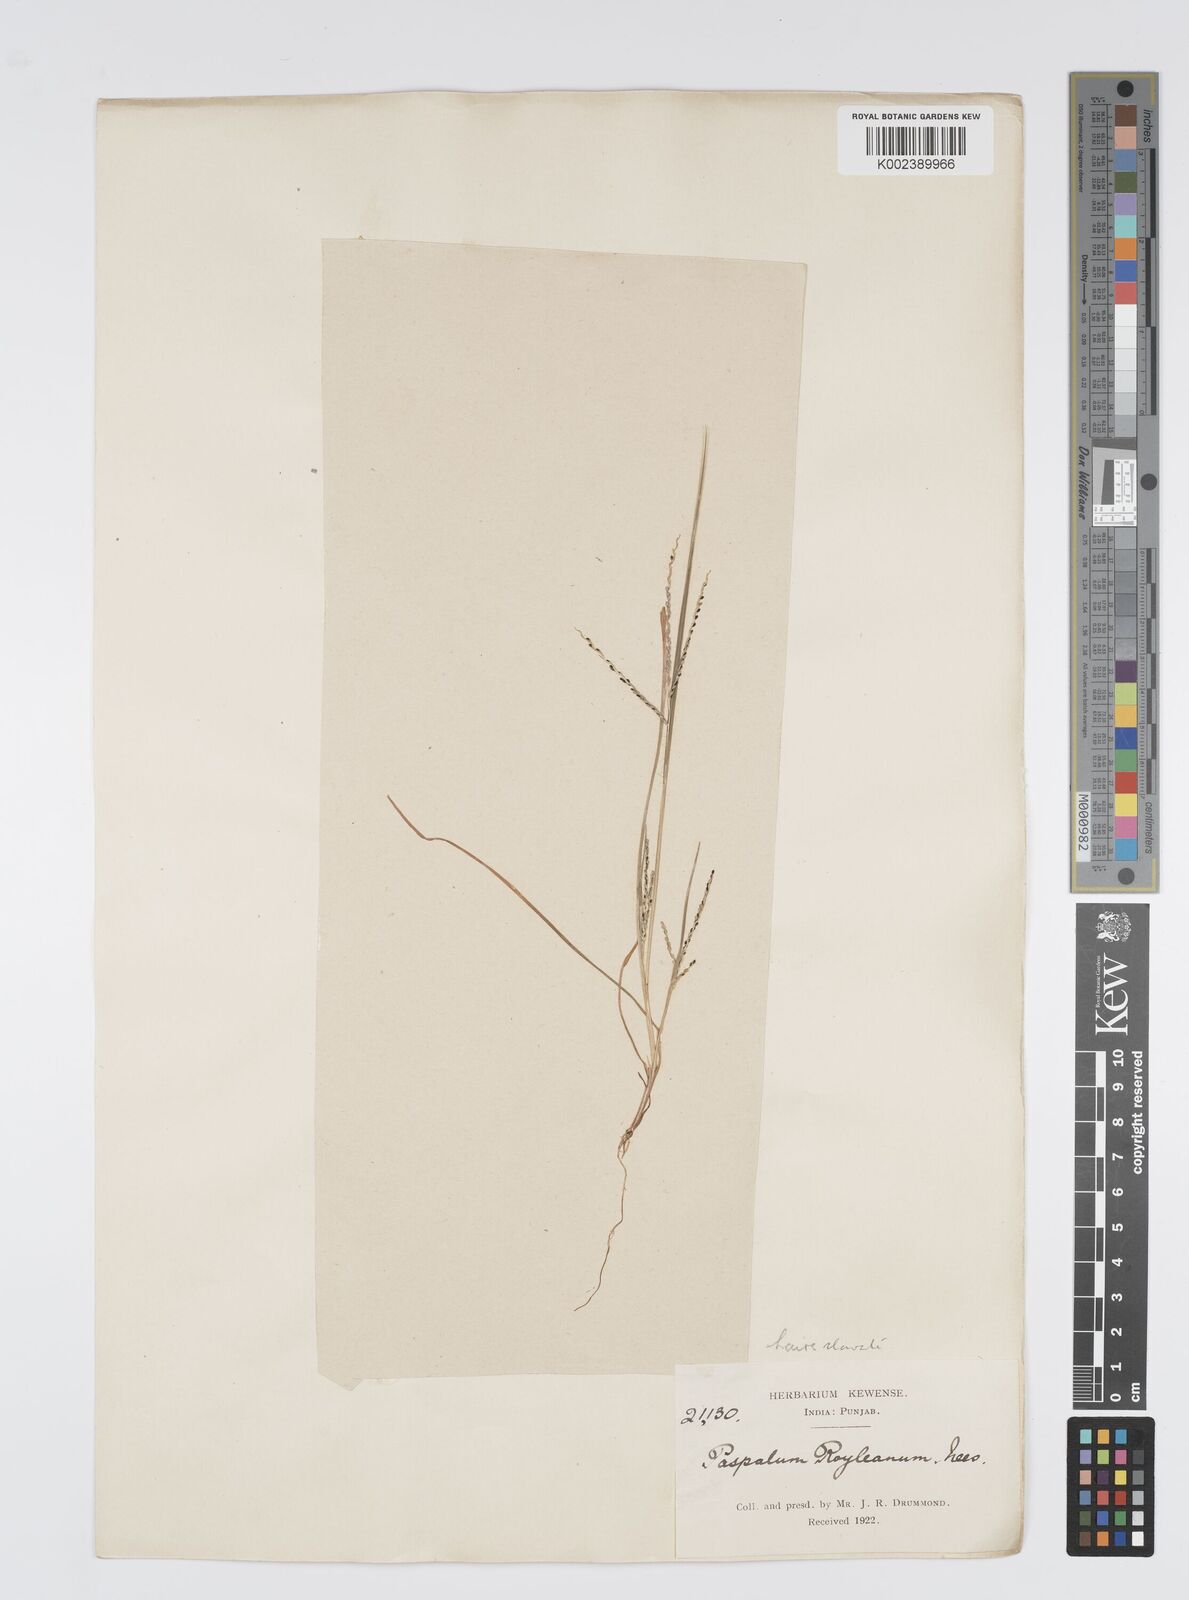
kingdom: Plantae
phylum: Tracheophyta
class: Liliopsida
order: Poales
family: Poaceae
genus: Digitaria
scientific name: Digitaria stricta
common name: Crabgrass
